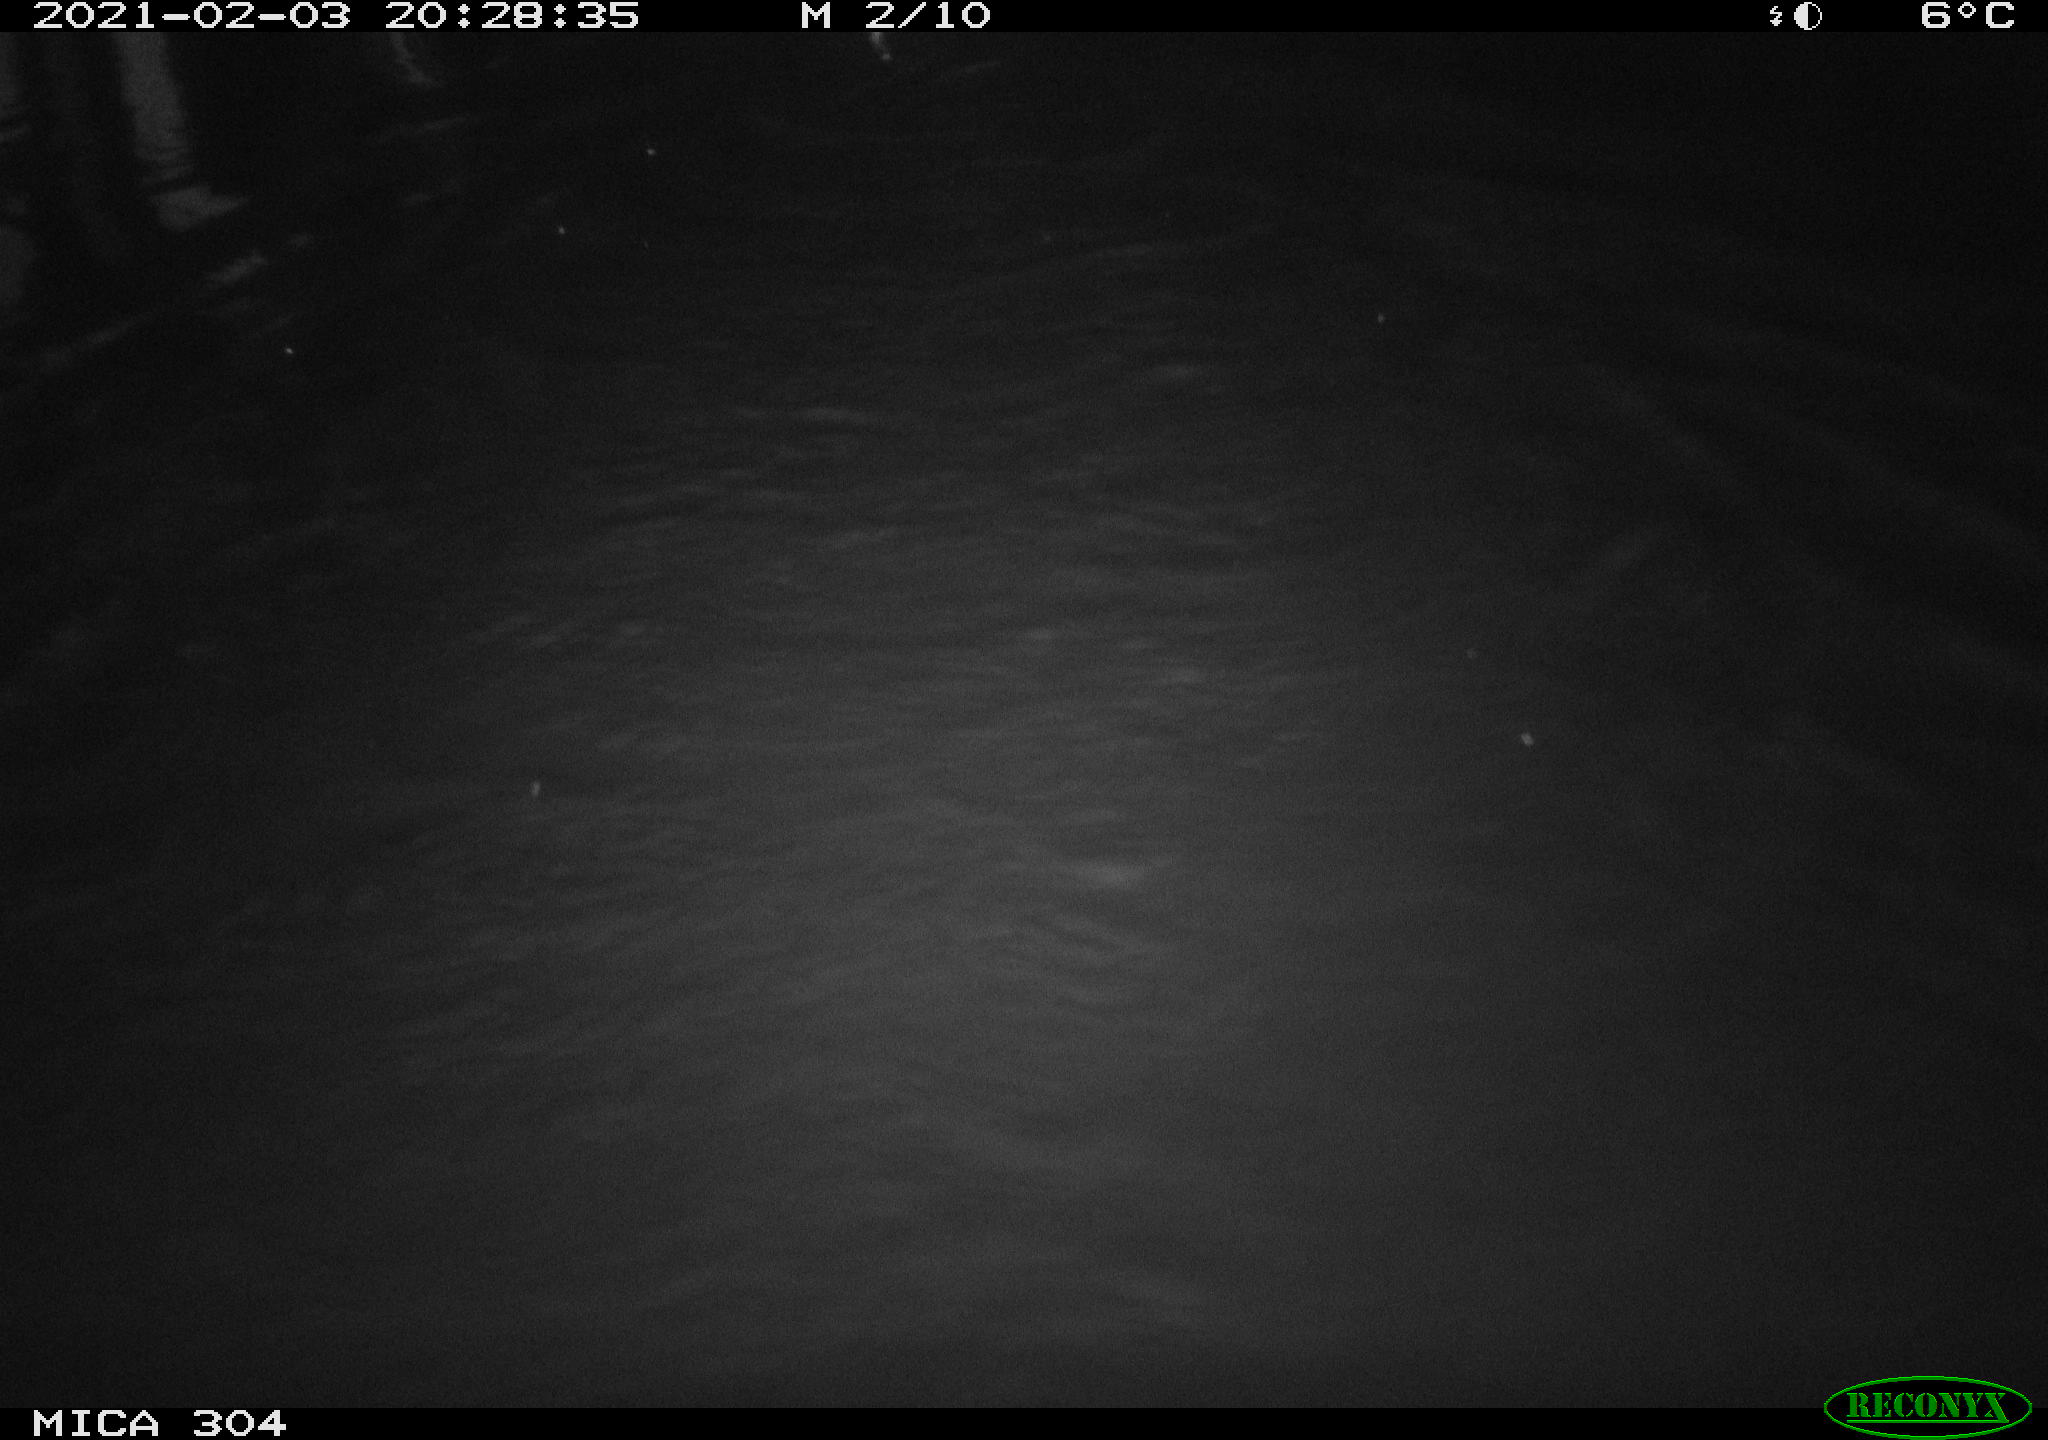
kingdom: Animalia
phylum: Chordata
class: Mammalia
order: Rodentia
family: Cricetidae
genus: Ondatra
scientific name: Ondatra zibethicus
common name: Muskrat
